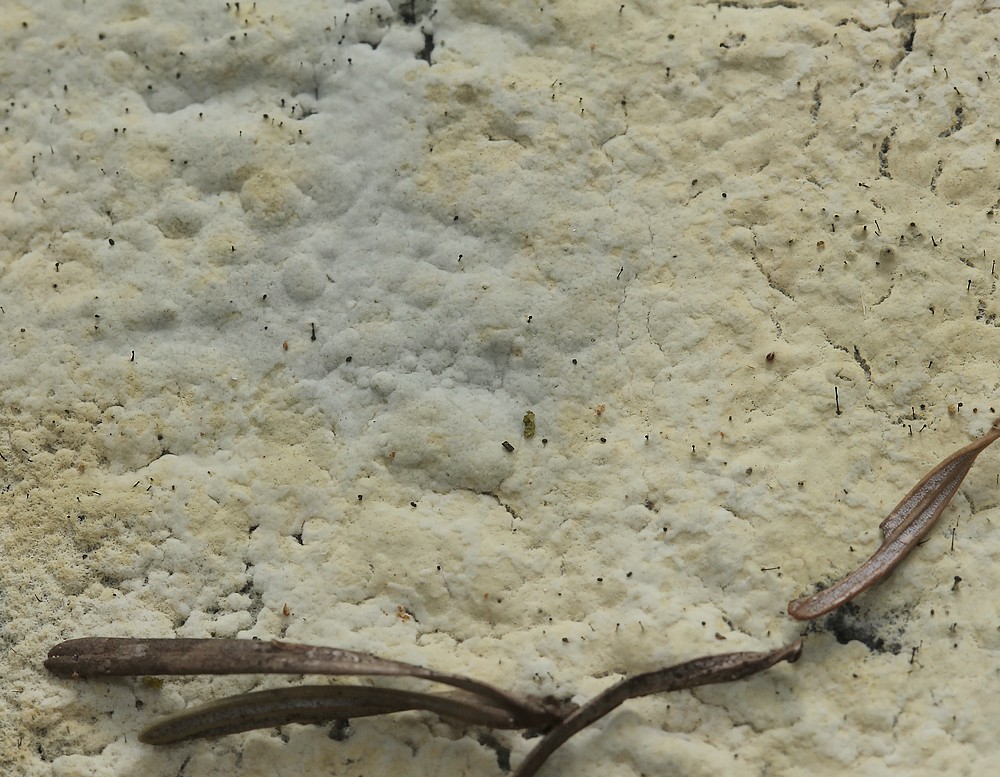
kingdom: Fungi
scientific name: Fungi
